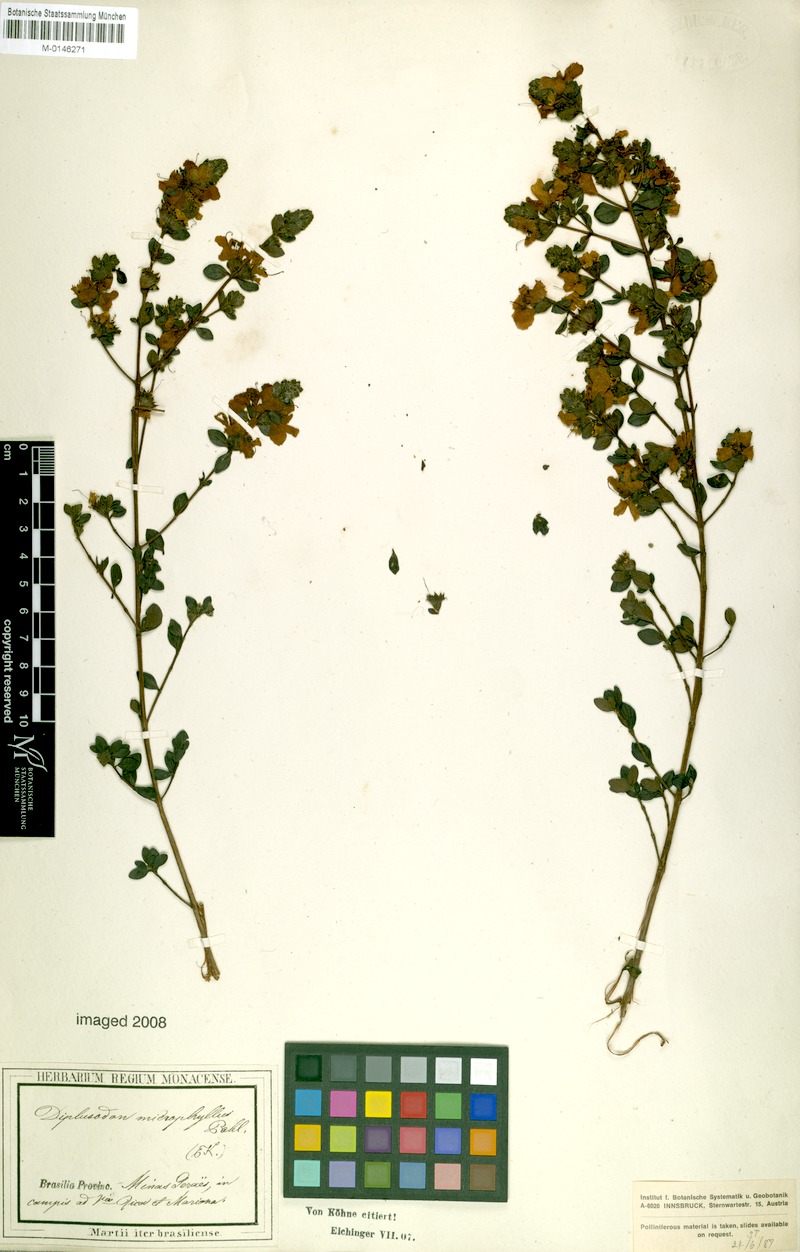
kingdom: Plantae
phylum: Tracheophyta
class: Magnoliopsida
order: Myrtales
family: Lythraceae
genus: Diplusodon
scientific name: Diplusodon microphyllus
